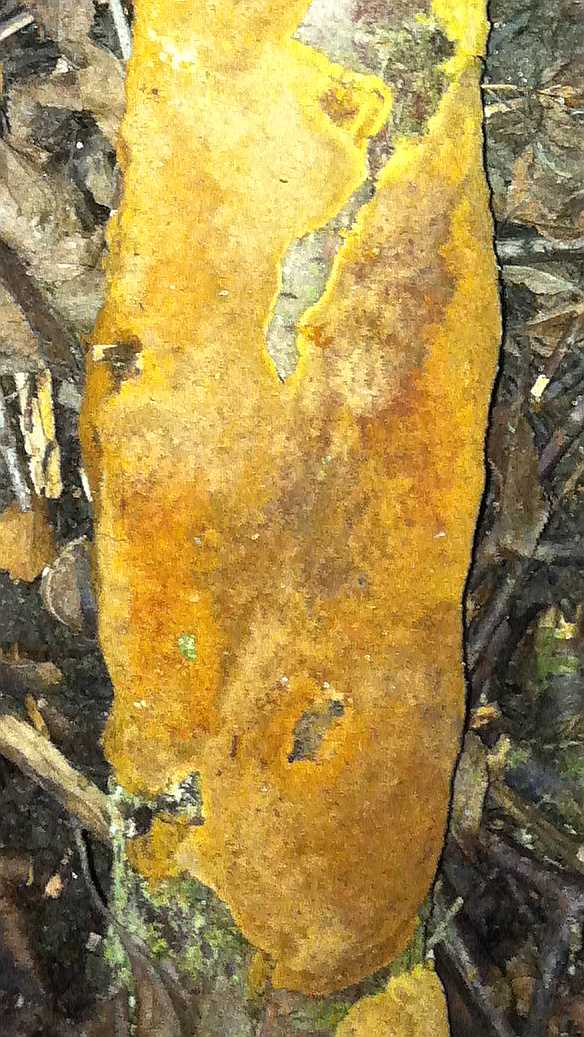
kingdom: Fungi
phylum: Basidiomycota
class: Agaricomycetes
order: Hymenochaetales
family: Hymenochaetaceae
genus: Fuscoporia
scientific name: Fuscoporia ferruginosa
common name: rustbrun ildporesvamp
